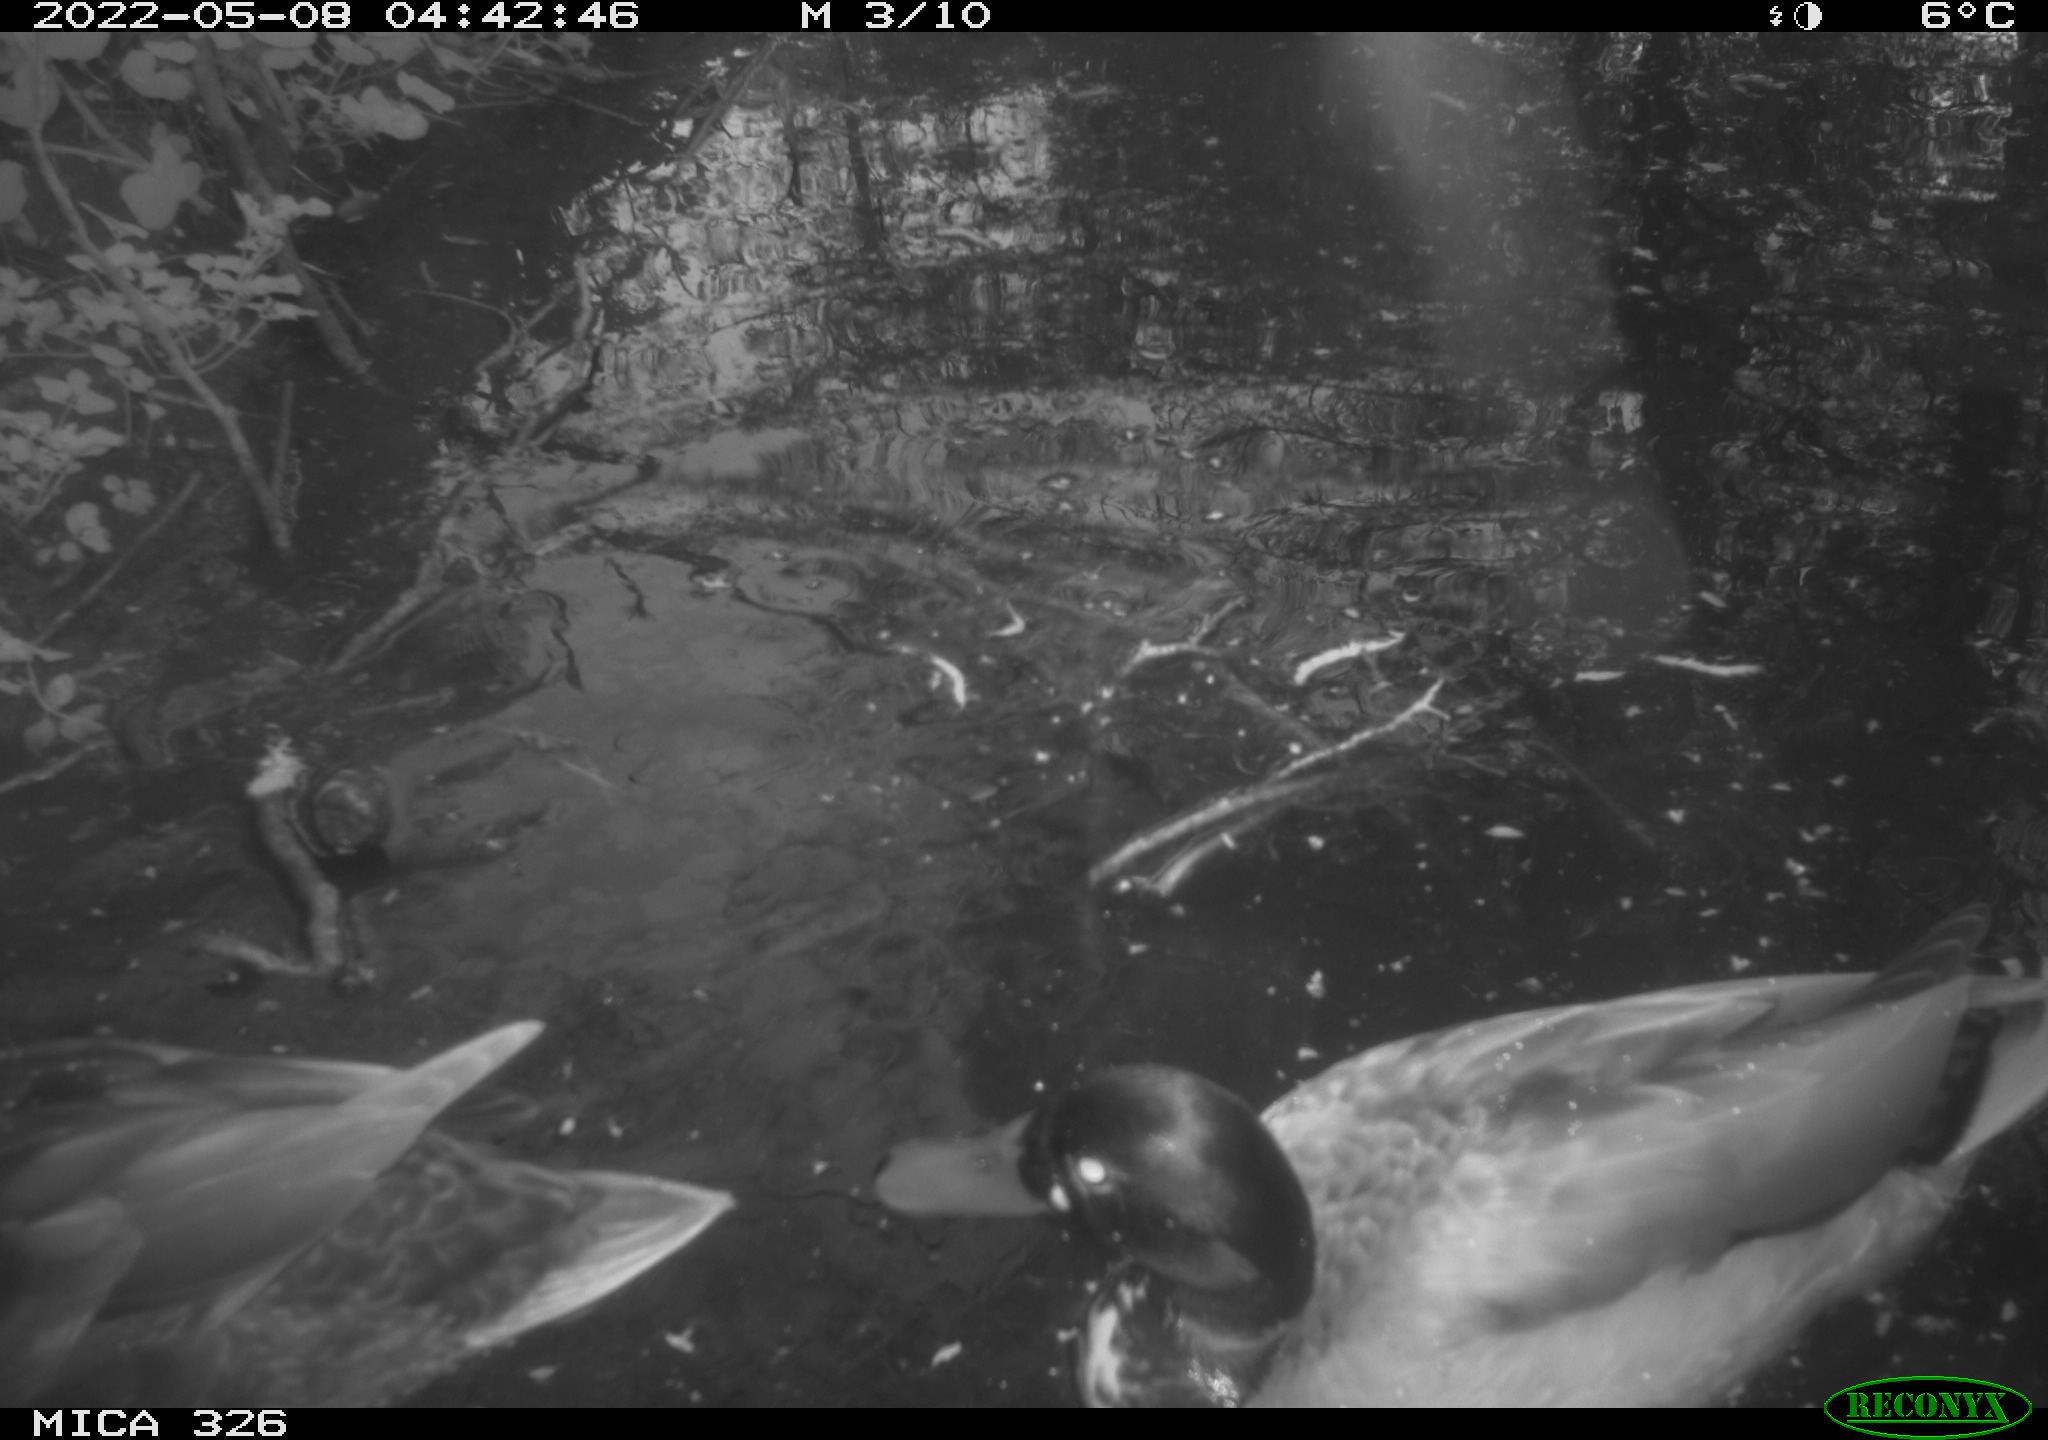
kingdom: Animalia
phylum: Chordata
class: Aves
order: Anseriformes
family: Anatidae
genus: Anas
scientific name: Anas platyrhynchos
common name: Mallard
